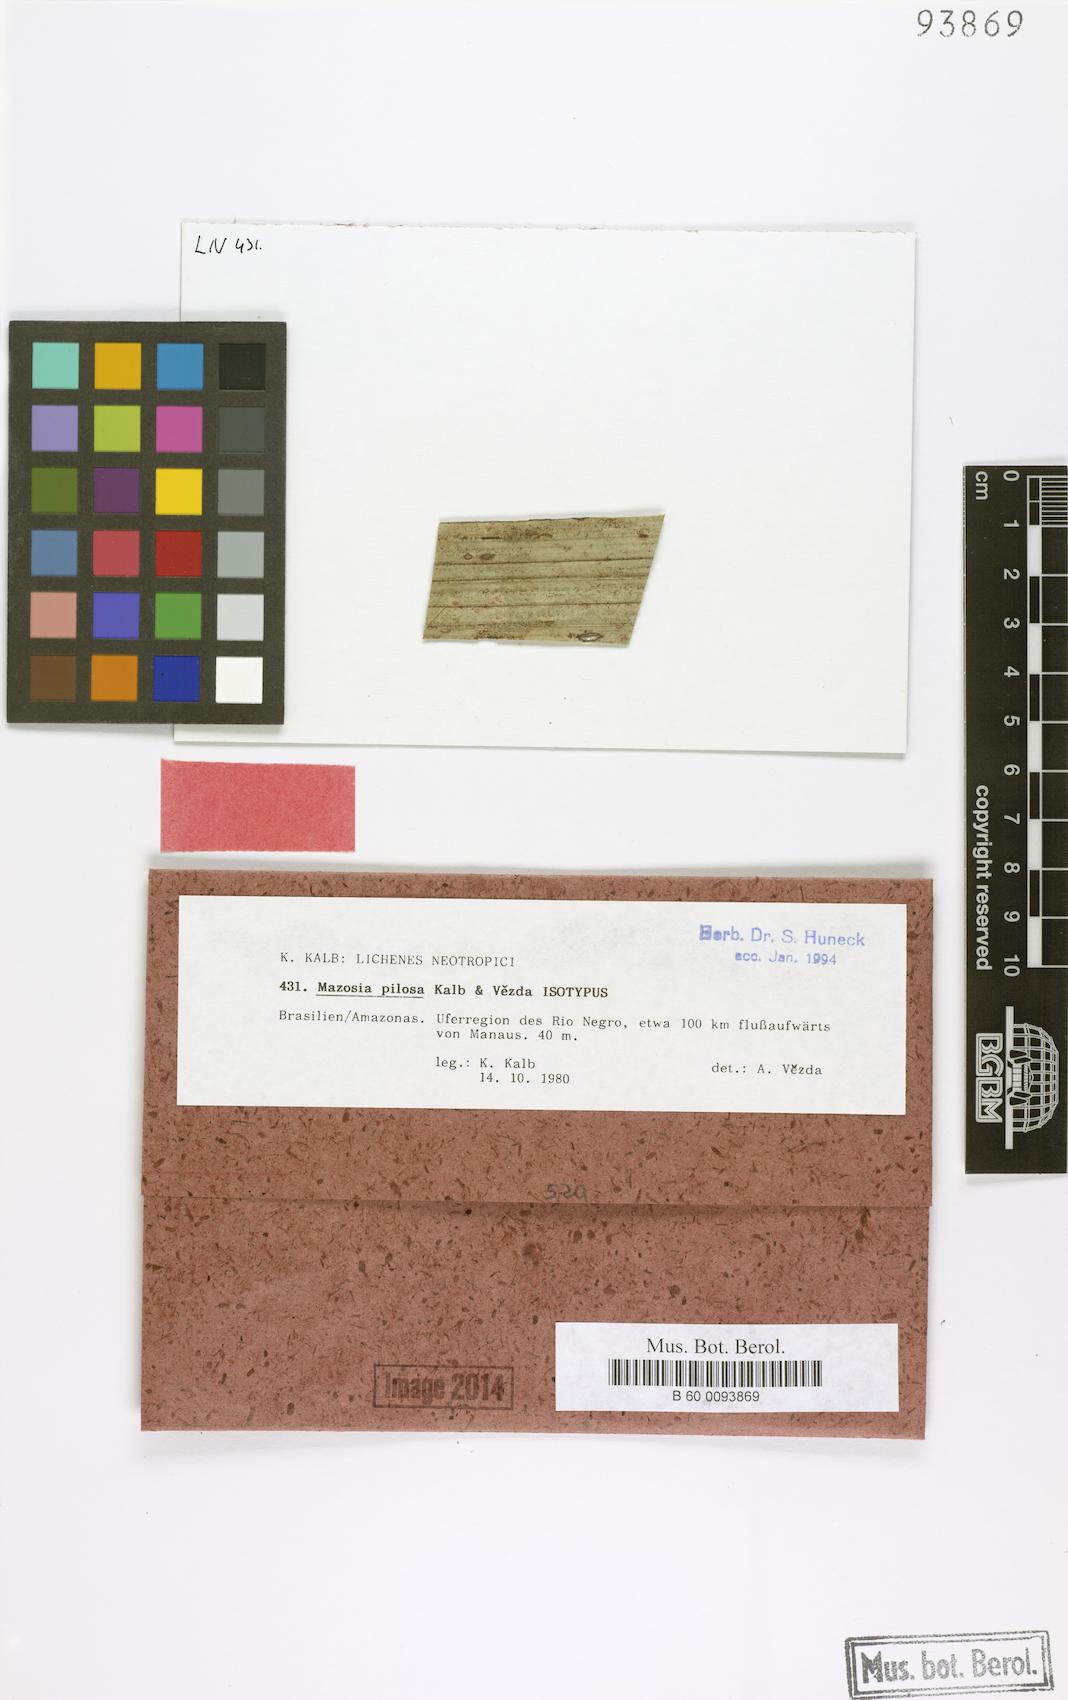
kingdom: Fungi
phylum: Ascomycota
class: Arthoniomycetes
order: Arthoniales
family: Roccellaceae
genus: Mazosia
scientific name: Mazosia pilosa
